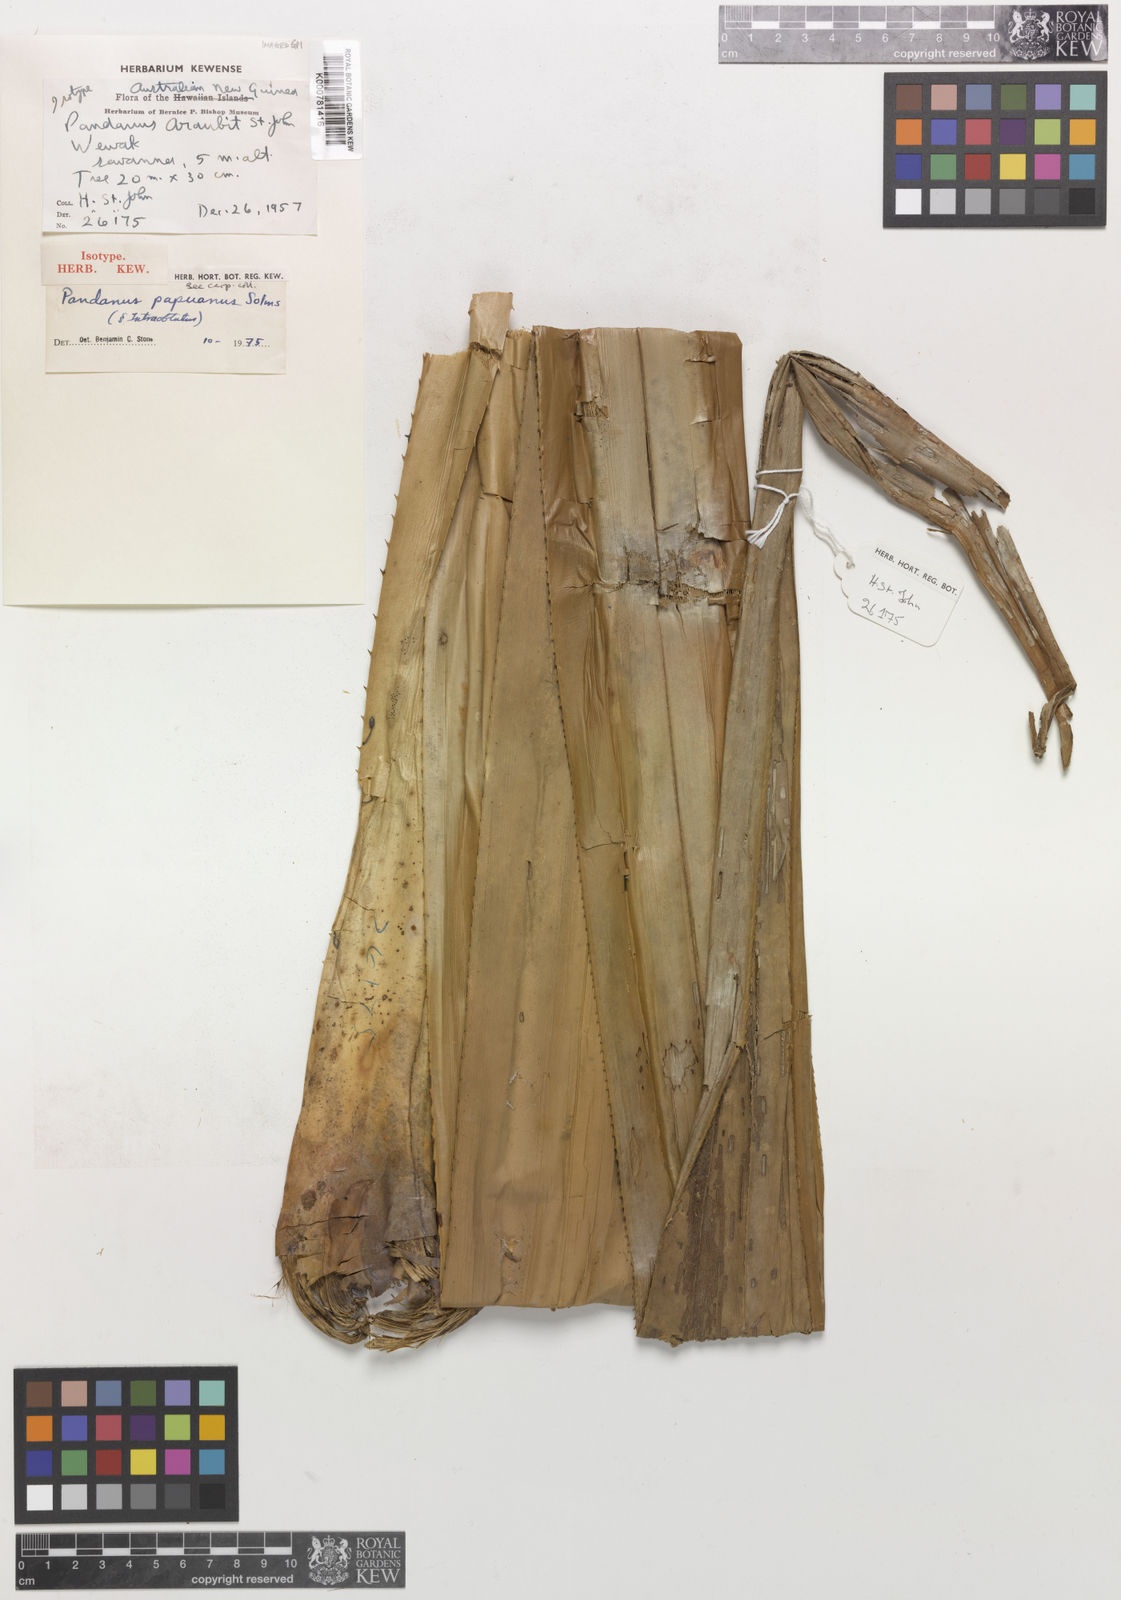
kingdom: Plantae
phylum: Tracheophyta
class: Liliopsida
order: Pandanales
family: Pandanaceae
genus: Pandanus
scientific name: Pandanus
